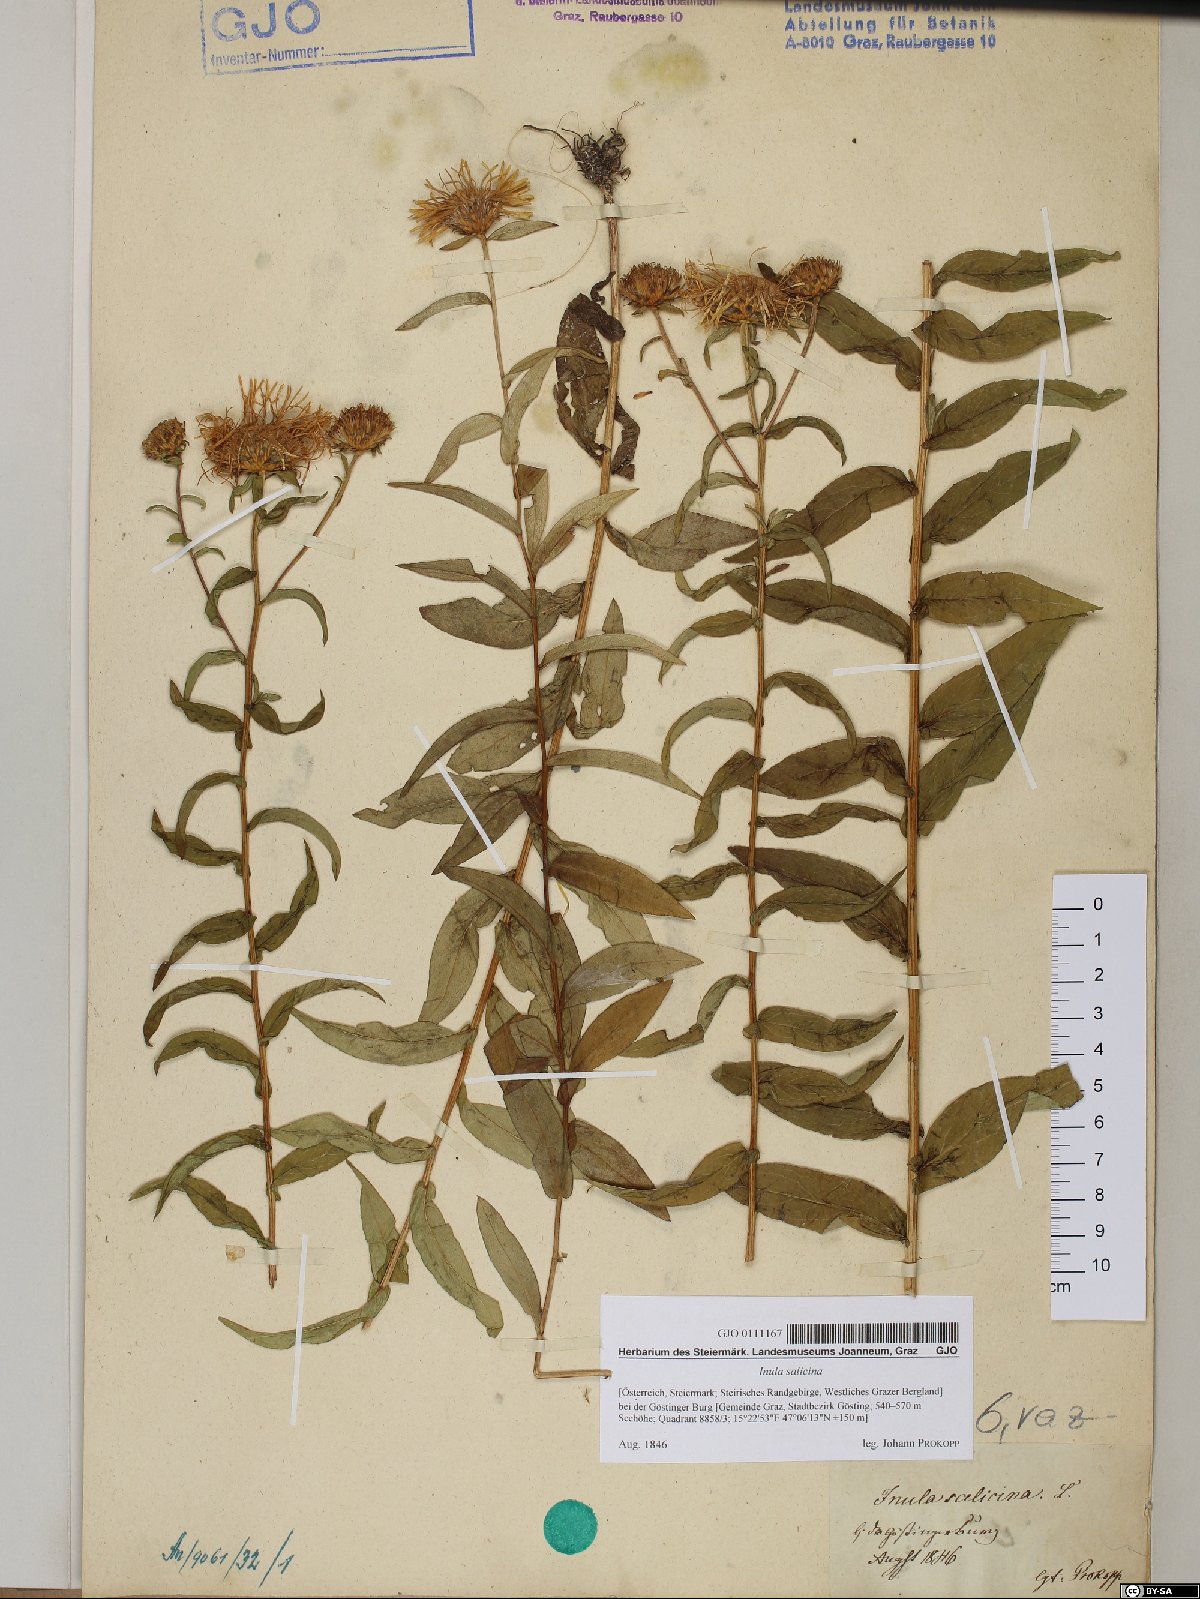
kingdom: Plantae
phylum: Tracheophyta
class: Magnoliopsida
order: Asterales
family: Asteraceae
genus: Pentanema
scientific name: Pentanema salicinum
